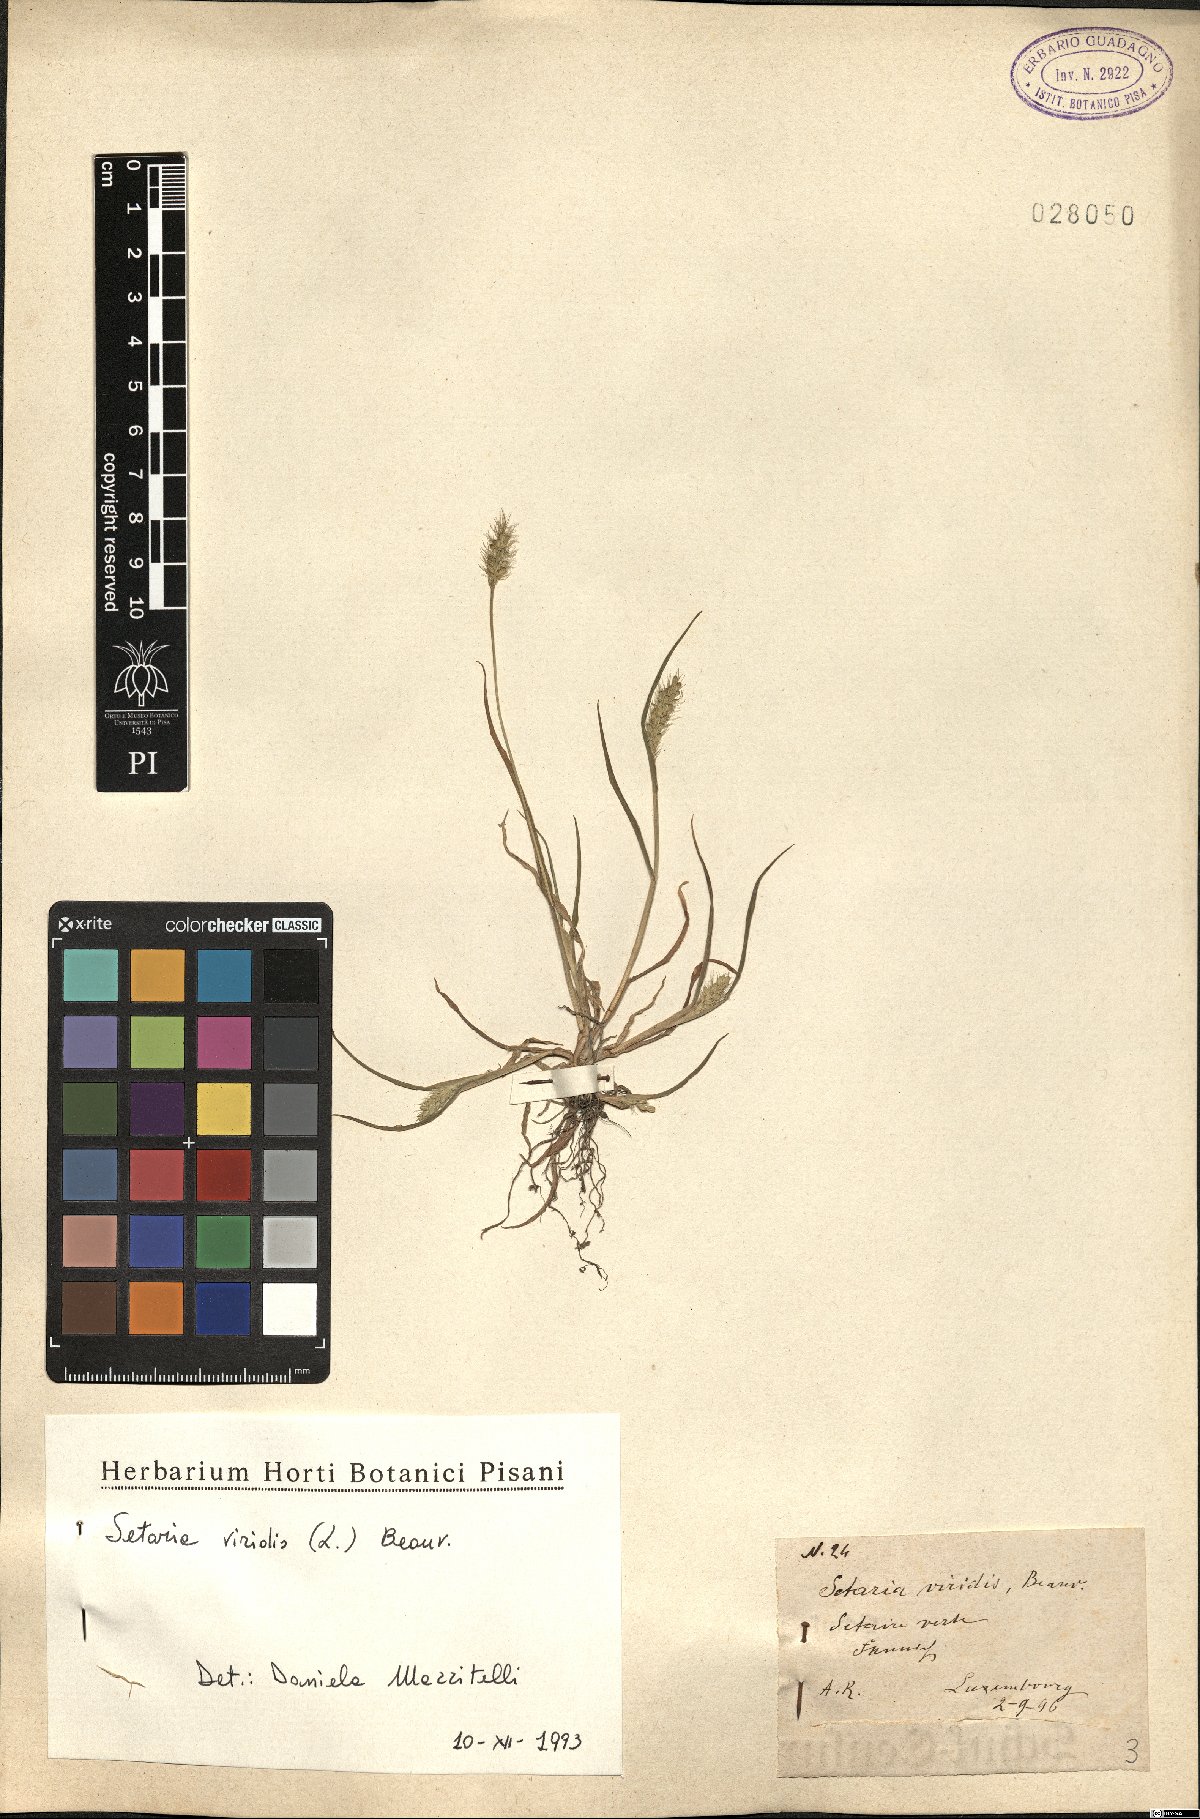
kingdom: Plantae
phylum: Tracheophyta
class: Liliopsida
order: Poales
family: Poaceae
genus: Setaria
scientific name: Setaria viridis
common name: Green bristlegrass
